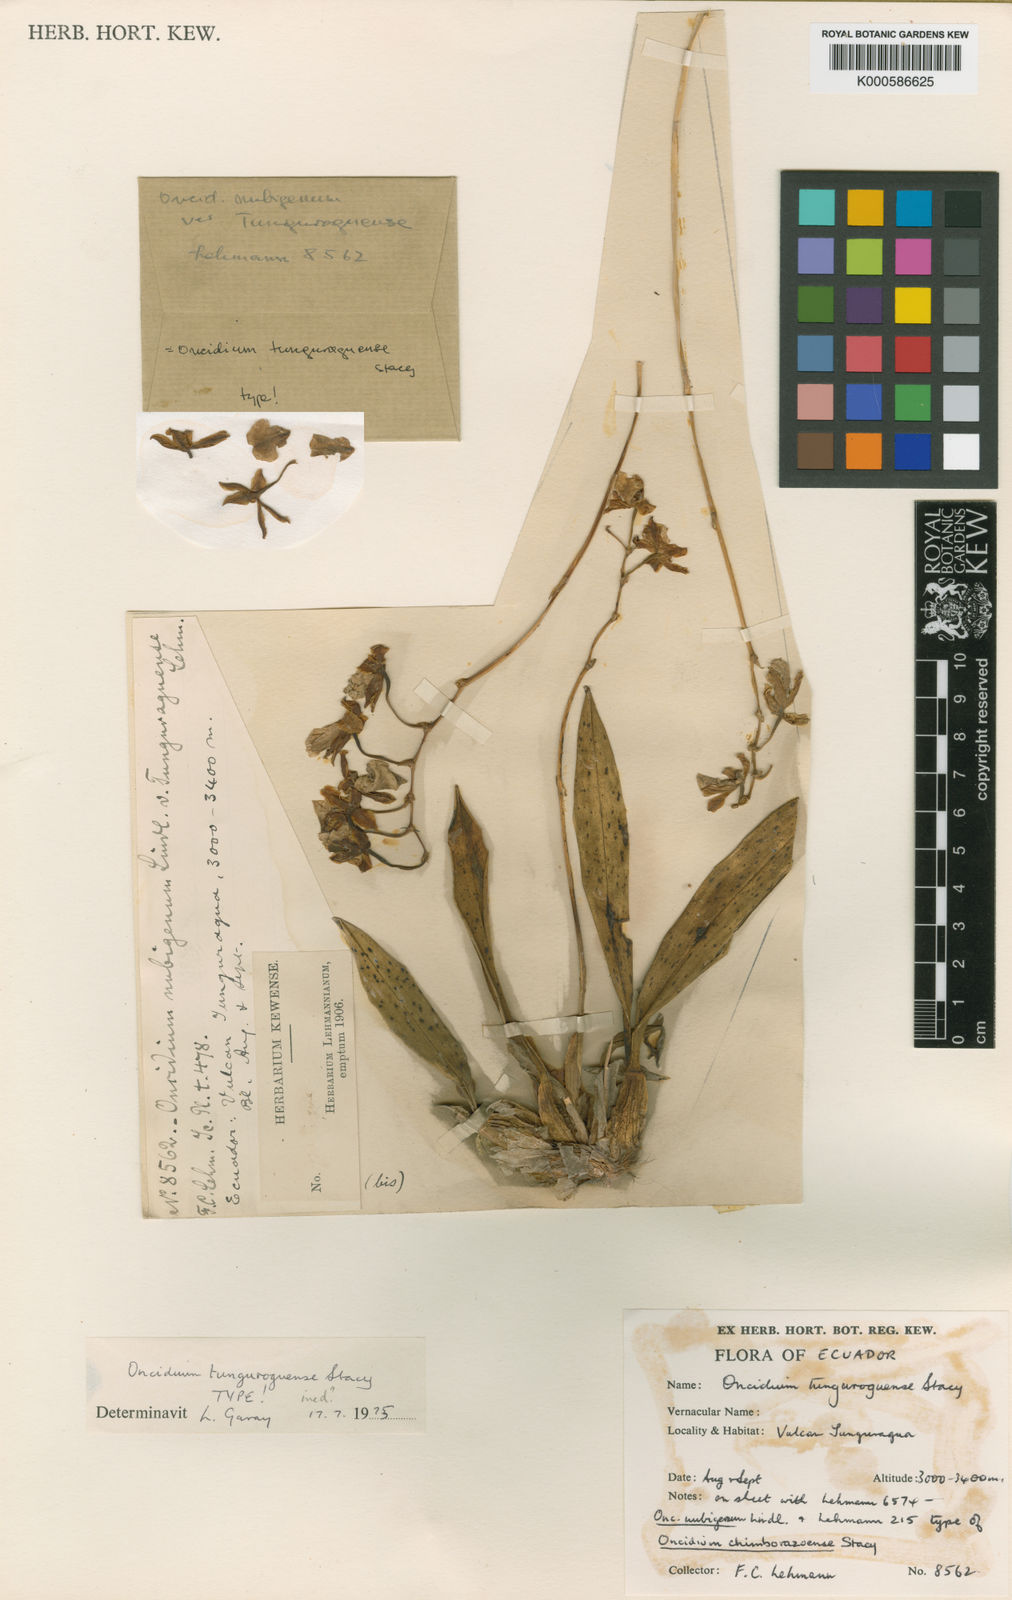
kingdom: Plantae
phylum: Tracheophyta
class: Liliopsida
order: Asparagales
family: Orchidaceae
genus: Caucaea
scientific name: Caucaea nubigena
